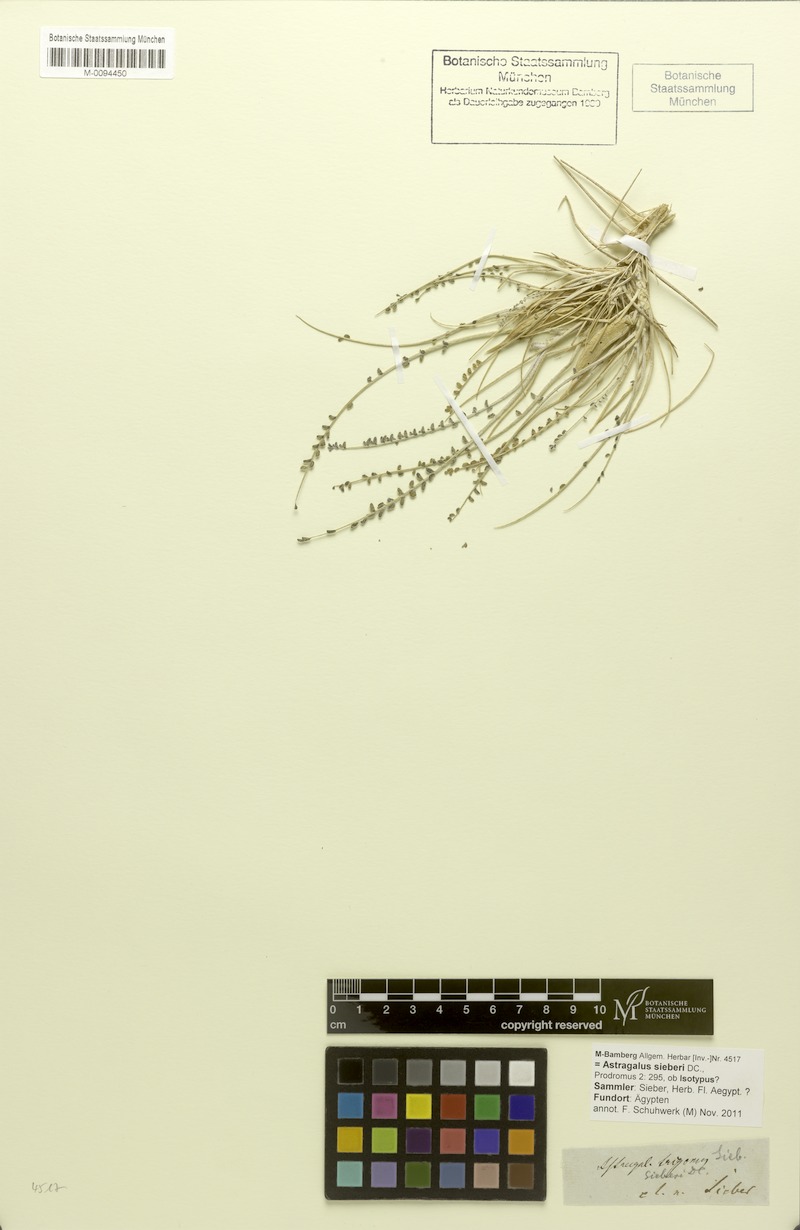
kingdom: Plantae
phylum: Tracheophyta
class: Magnoliopsida
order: Fabales
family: Fabaceae
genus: Astragalus
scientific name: Astragalus sieberi
